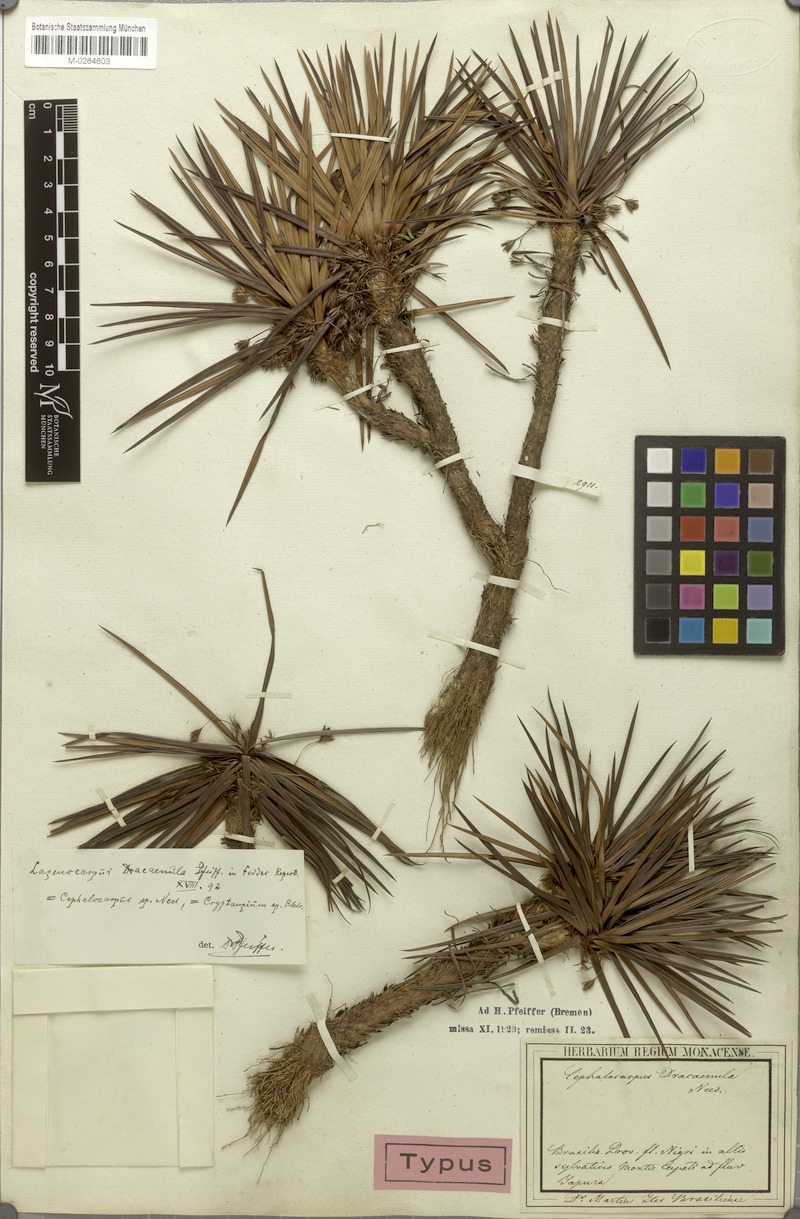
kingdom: Plantae
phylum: Tracheophyta
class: Liliopsida
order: Poales
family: Cyperaceae
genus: Cephalocarpus
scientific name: Cephalocarpus dracaenula
